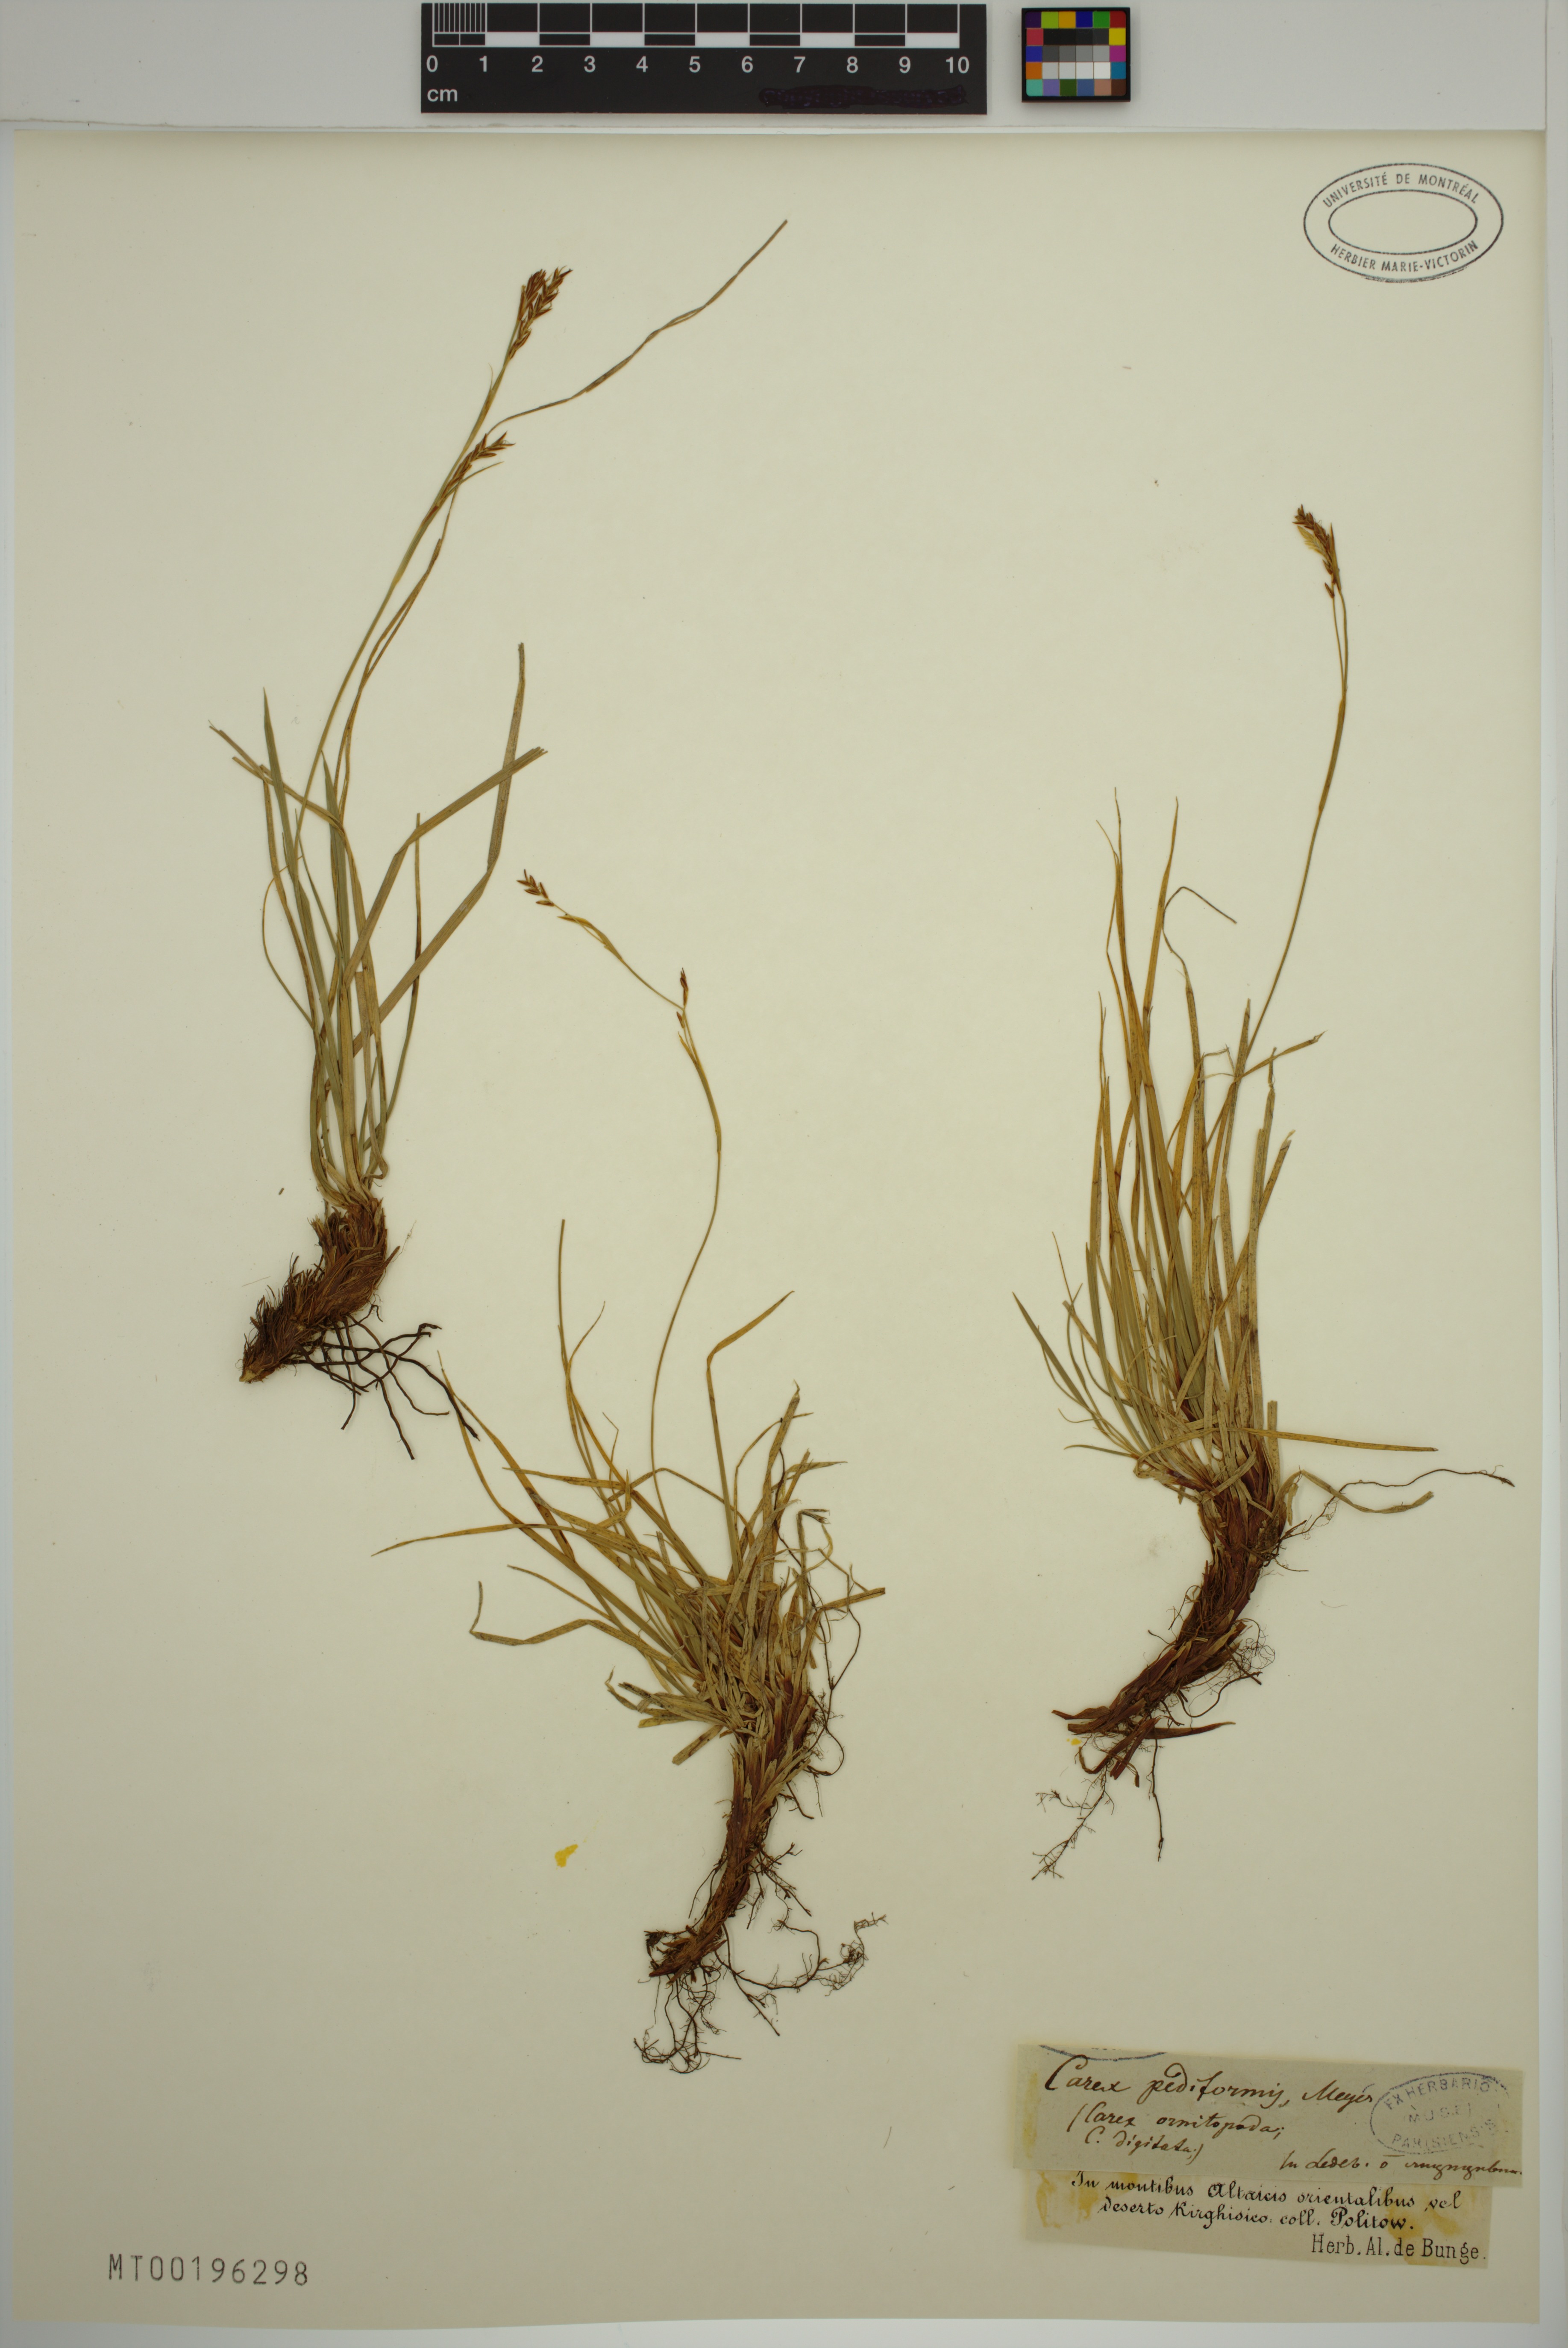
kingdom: Plantae
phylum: Tracheophyta
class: Liliopsida
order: Poales
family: Cyperaceae
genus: Carex
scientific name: Carex pediformis
